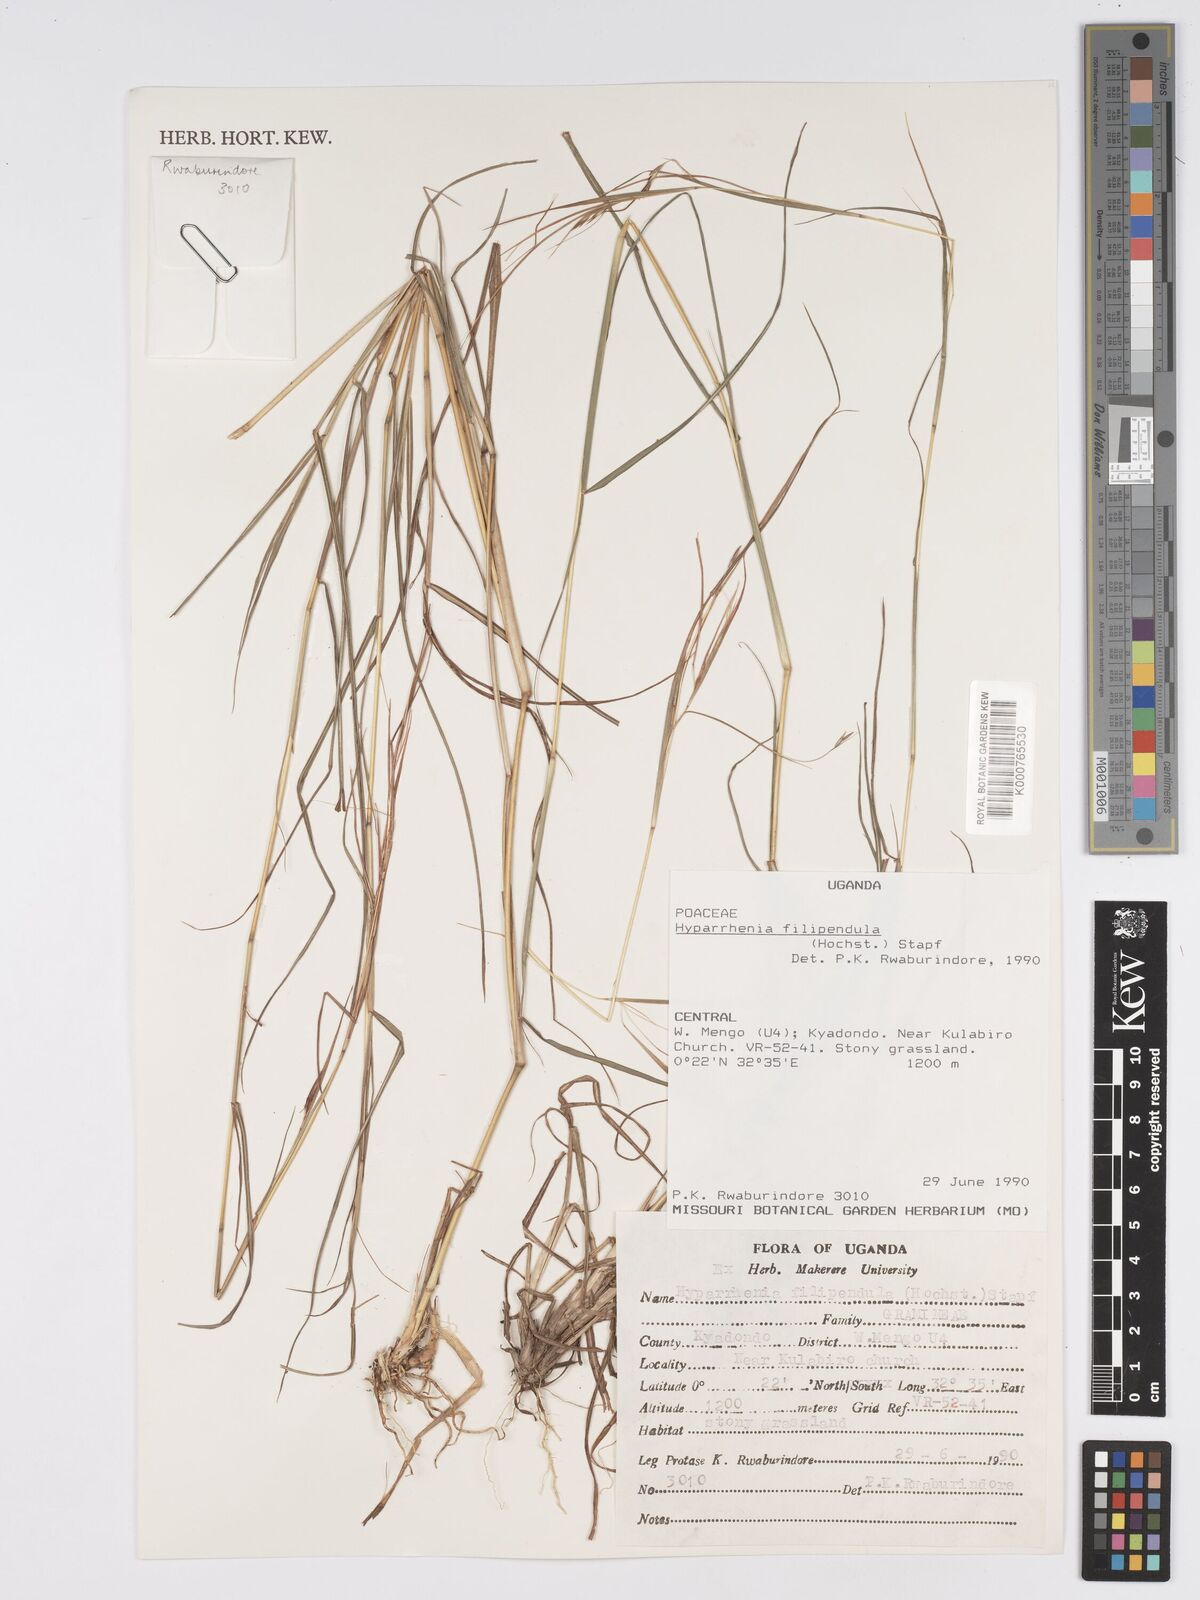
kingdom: Plantae
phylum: Tracheophyta
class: Liliopsida
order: Poales
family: Poaceae
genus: Hyparrhenia
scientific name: Hyparrhenia filipendula
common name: Tambookie grass
